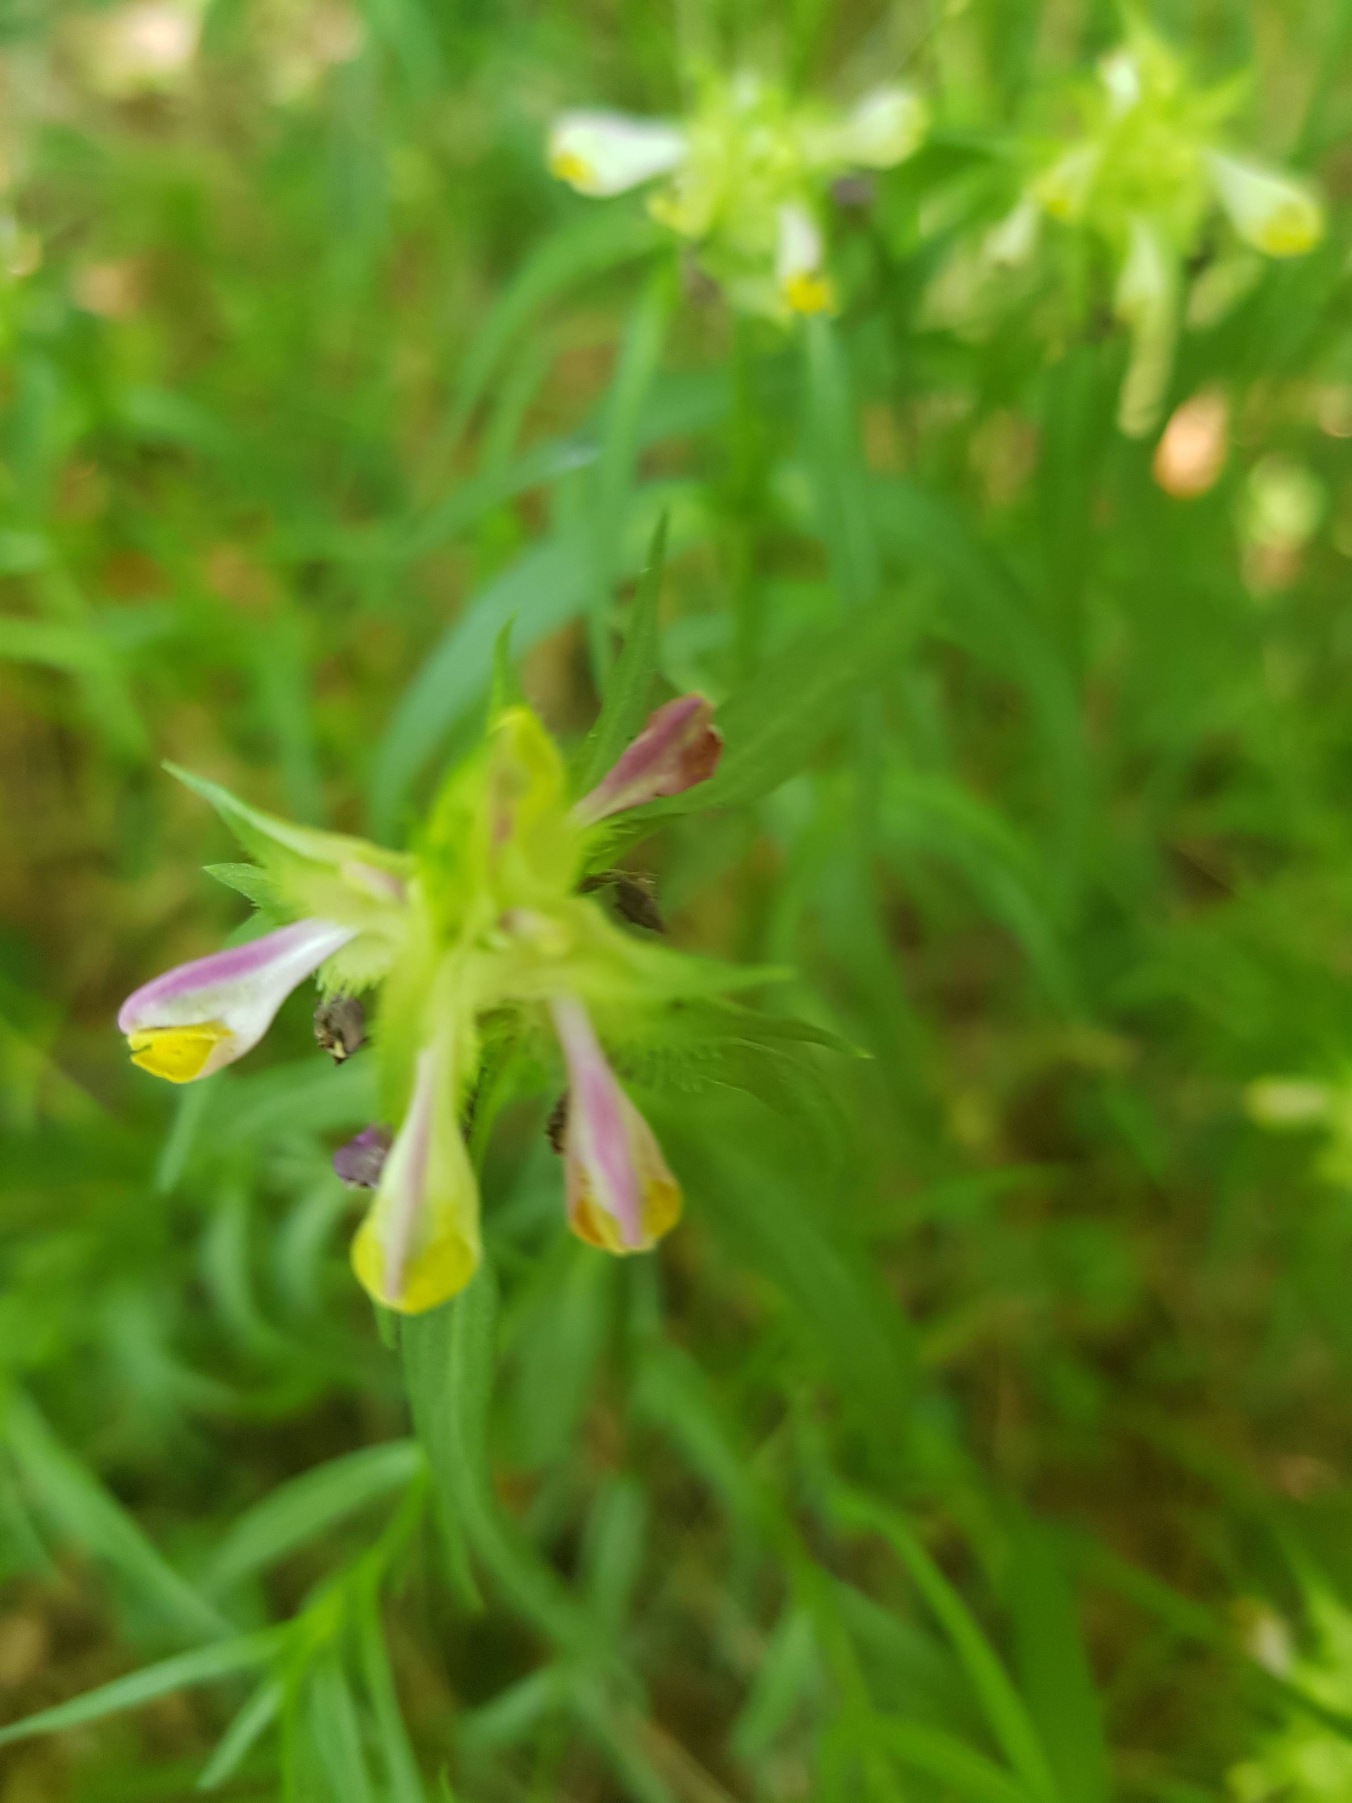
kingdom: Plantae
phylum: Tracheophyta
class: Magnoliopsida
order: Lamiales
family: Orobanchaceae
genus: Melampyrum
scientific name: Melampyrum cristatum
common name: Kantet kohvede
